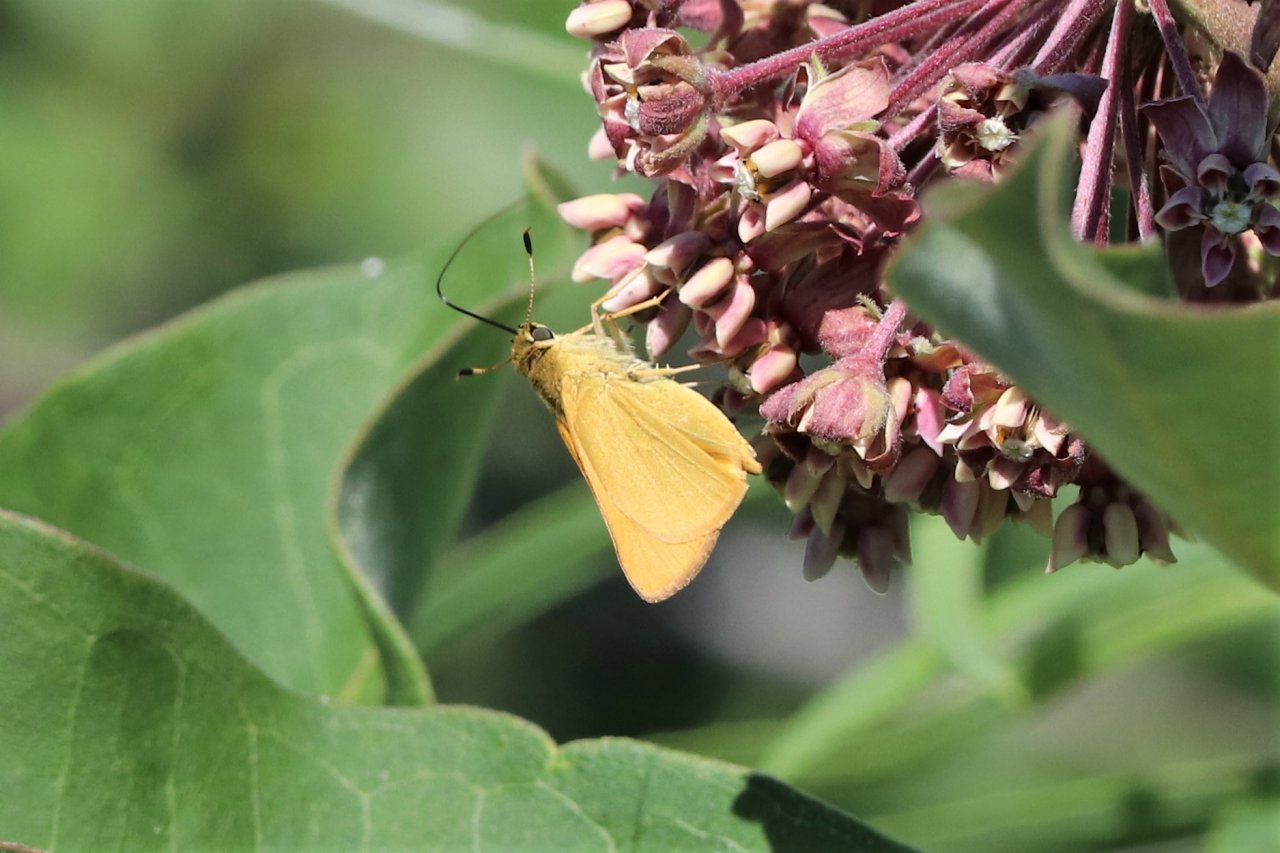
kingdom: Animalia
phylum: Arthropoda
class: Insecta
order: Lepidoptera
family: Hesperiidae
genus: Atrytone
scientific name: Atrytone delaware
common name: Delaware Skipper
